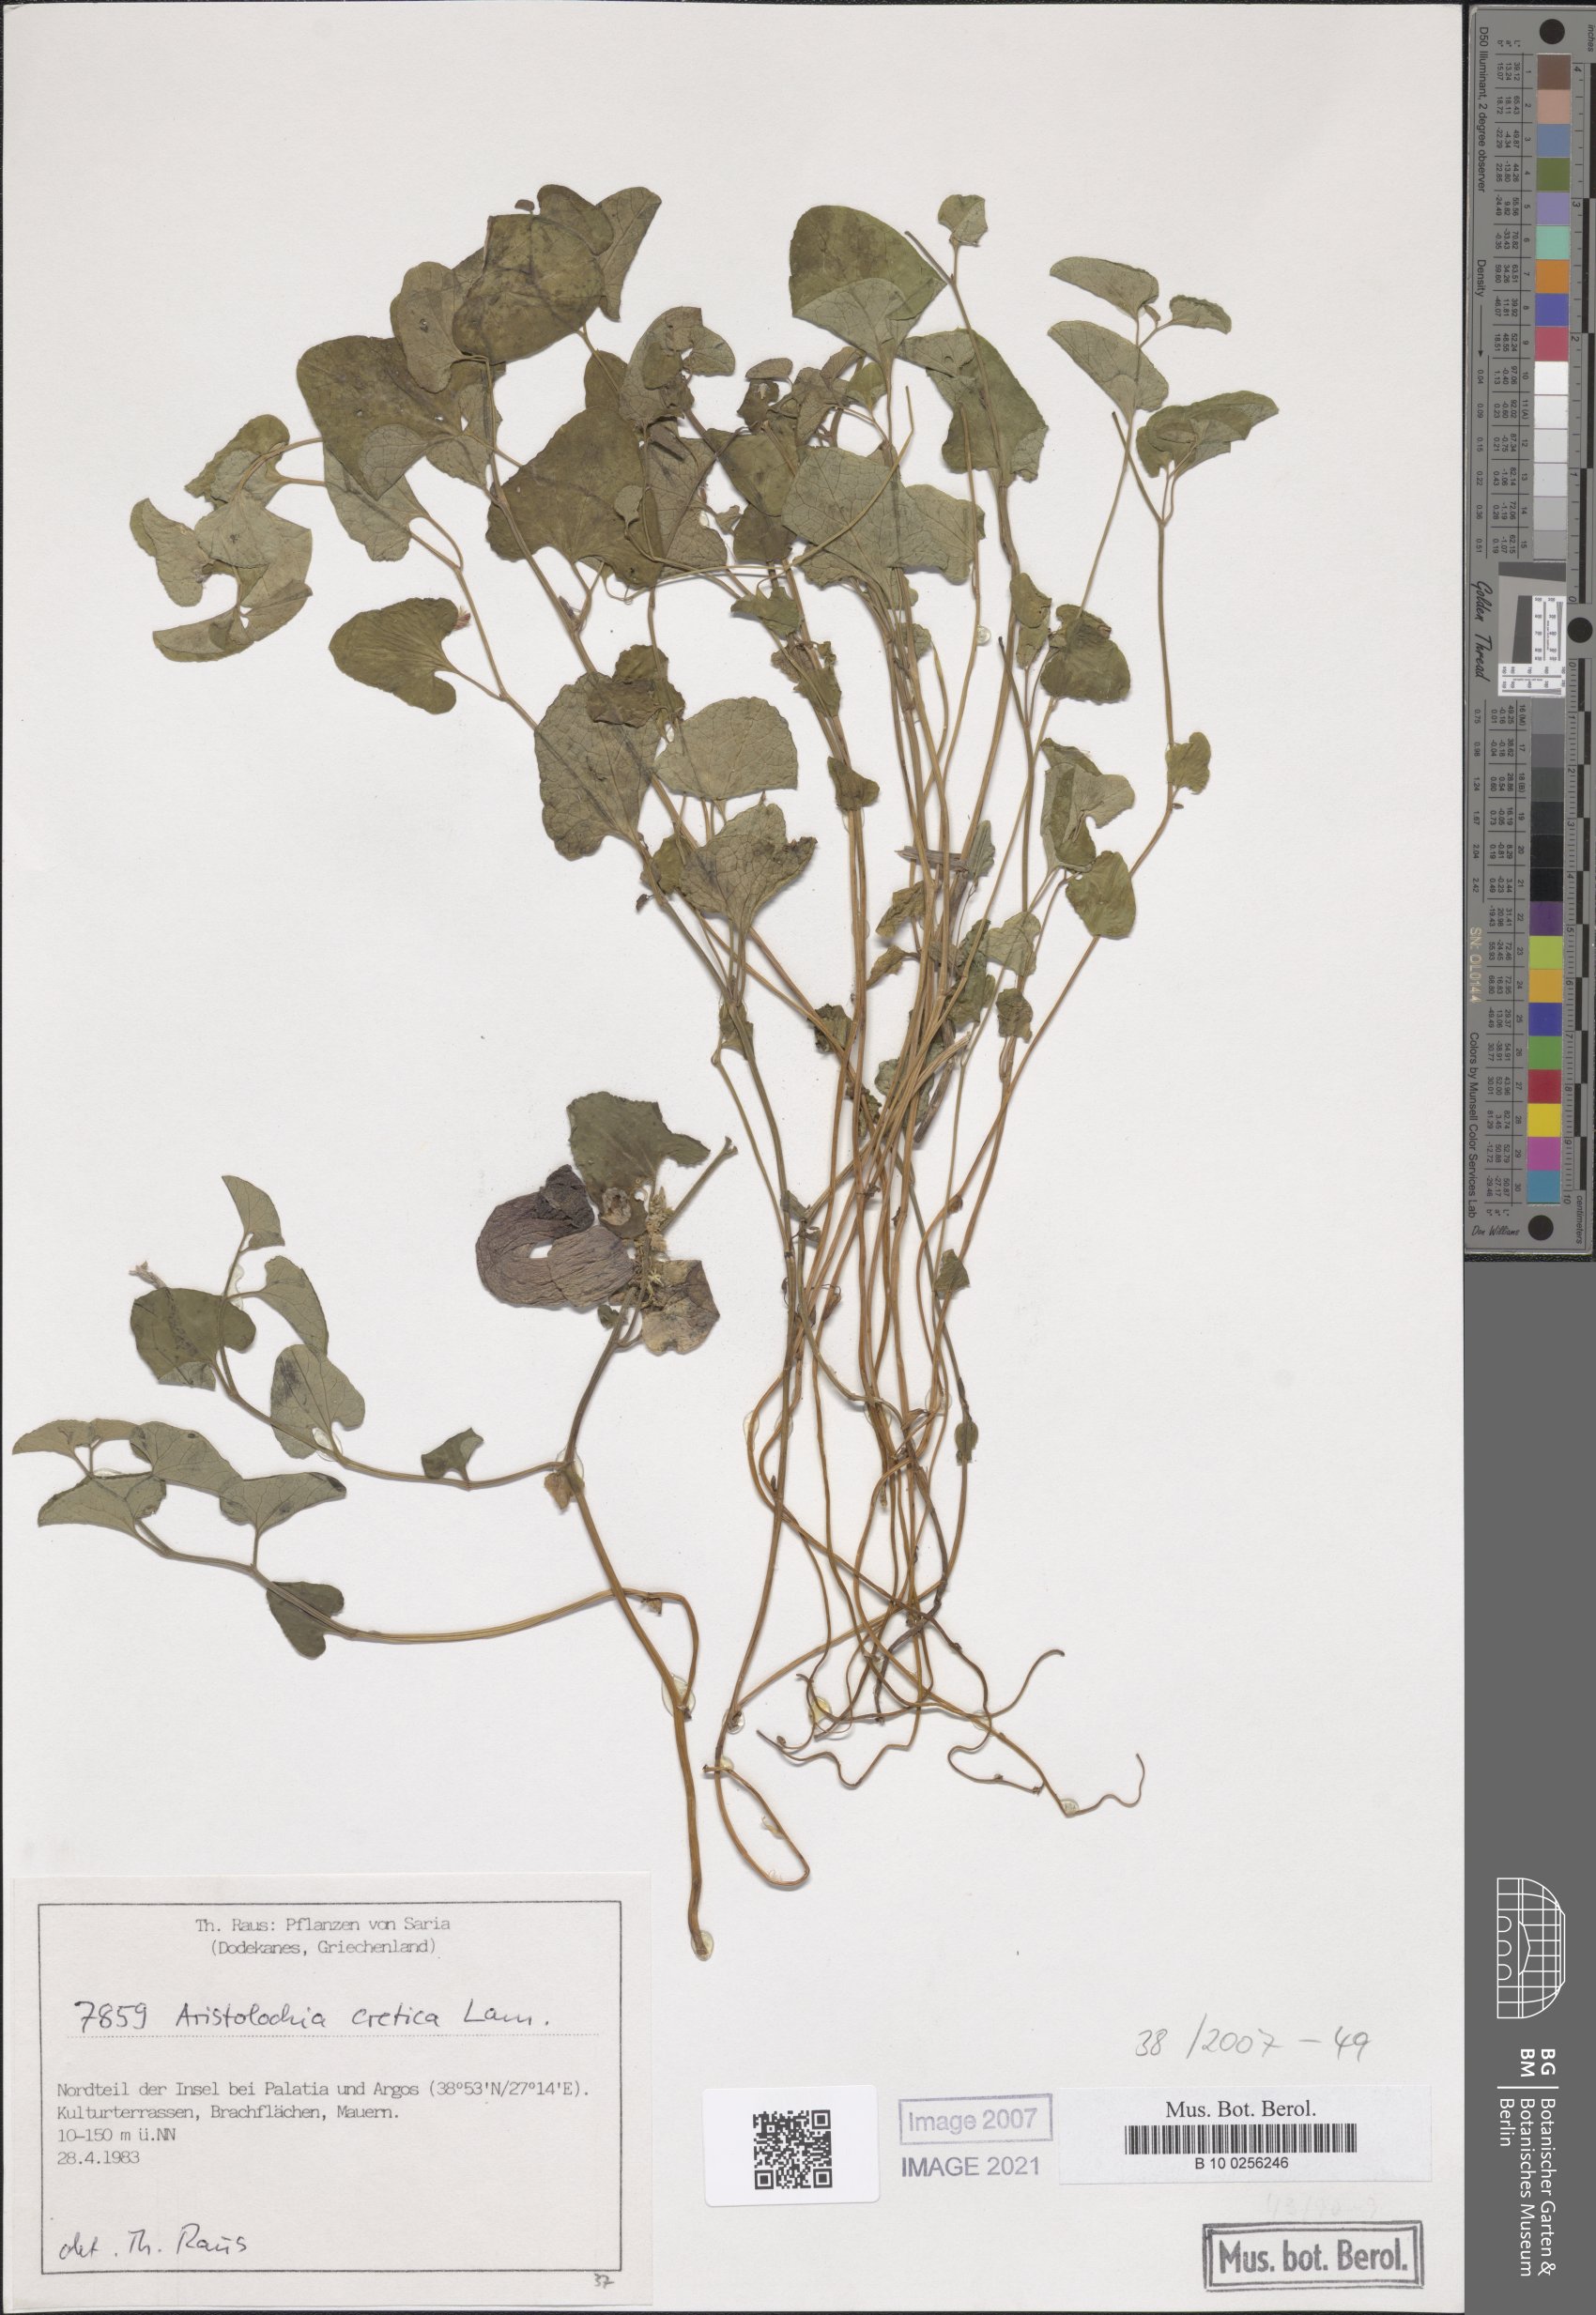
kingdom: Plantae
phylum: Tracheophyta
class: Magnoliopsida
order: Piperales
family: Aristolochiaceae
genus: Aristolochia
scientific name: Aristolochia cretica
